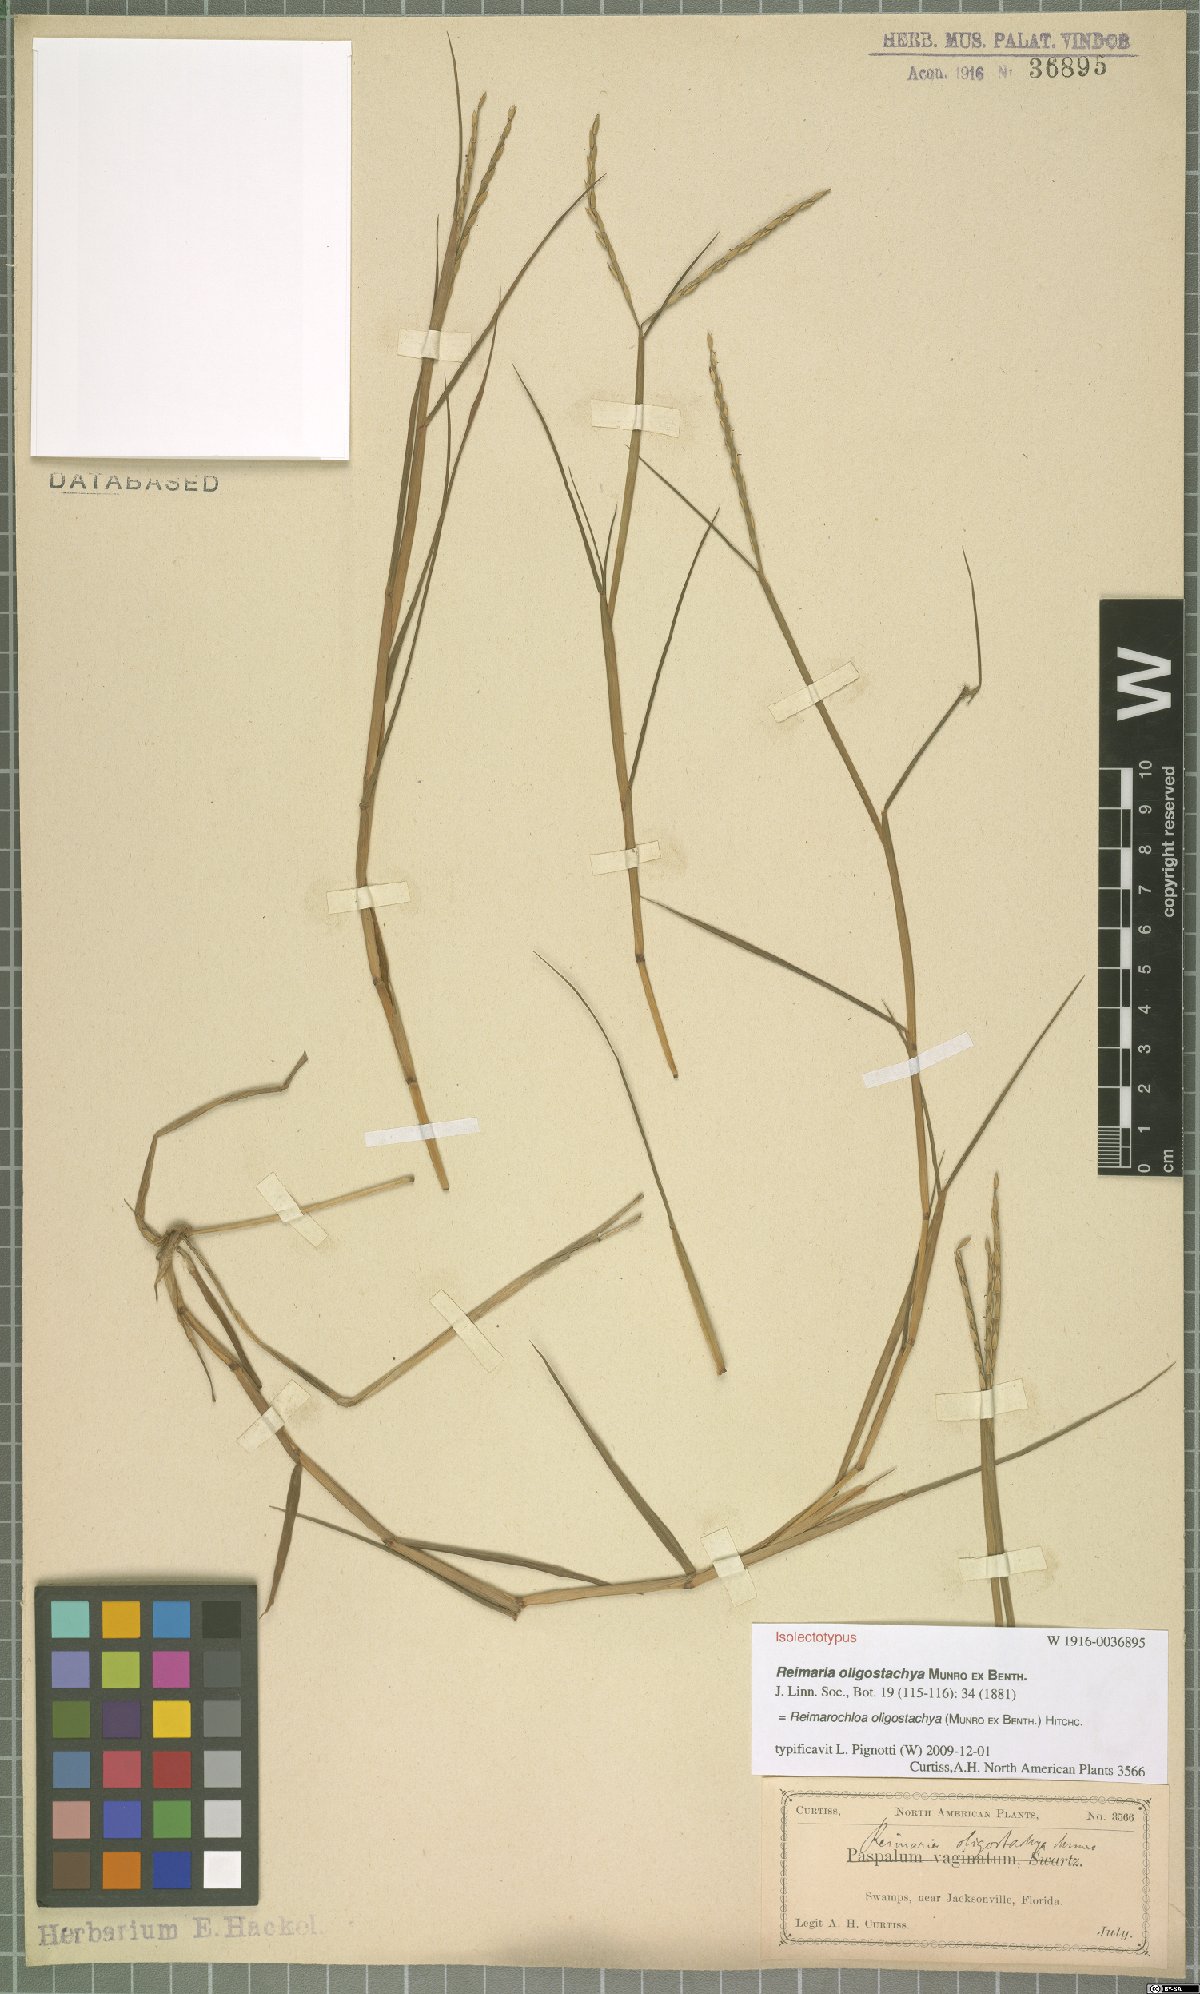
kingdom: Plantae
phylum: Tracheophyta
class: Liliopsida
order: Poales
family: Poaceae
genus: Paspalum
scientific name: Paspalum eglume
